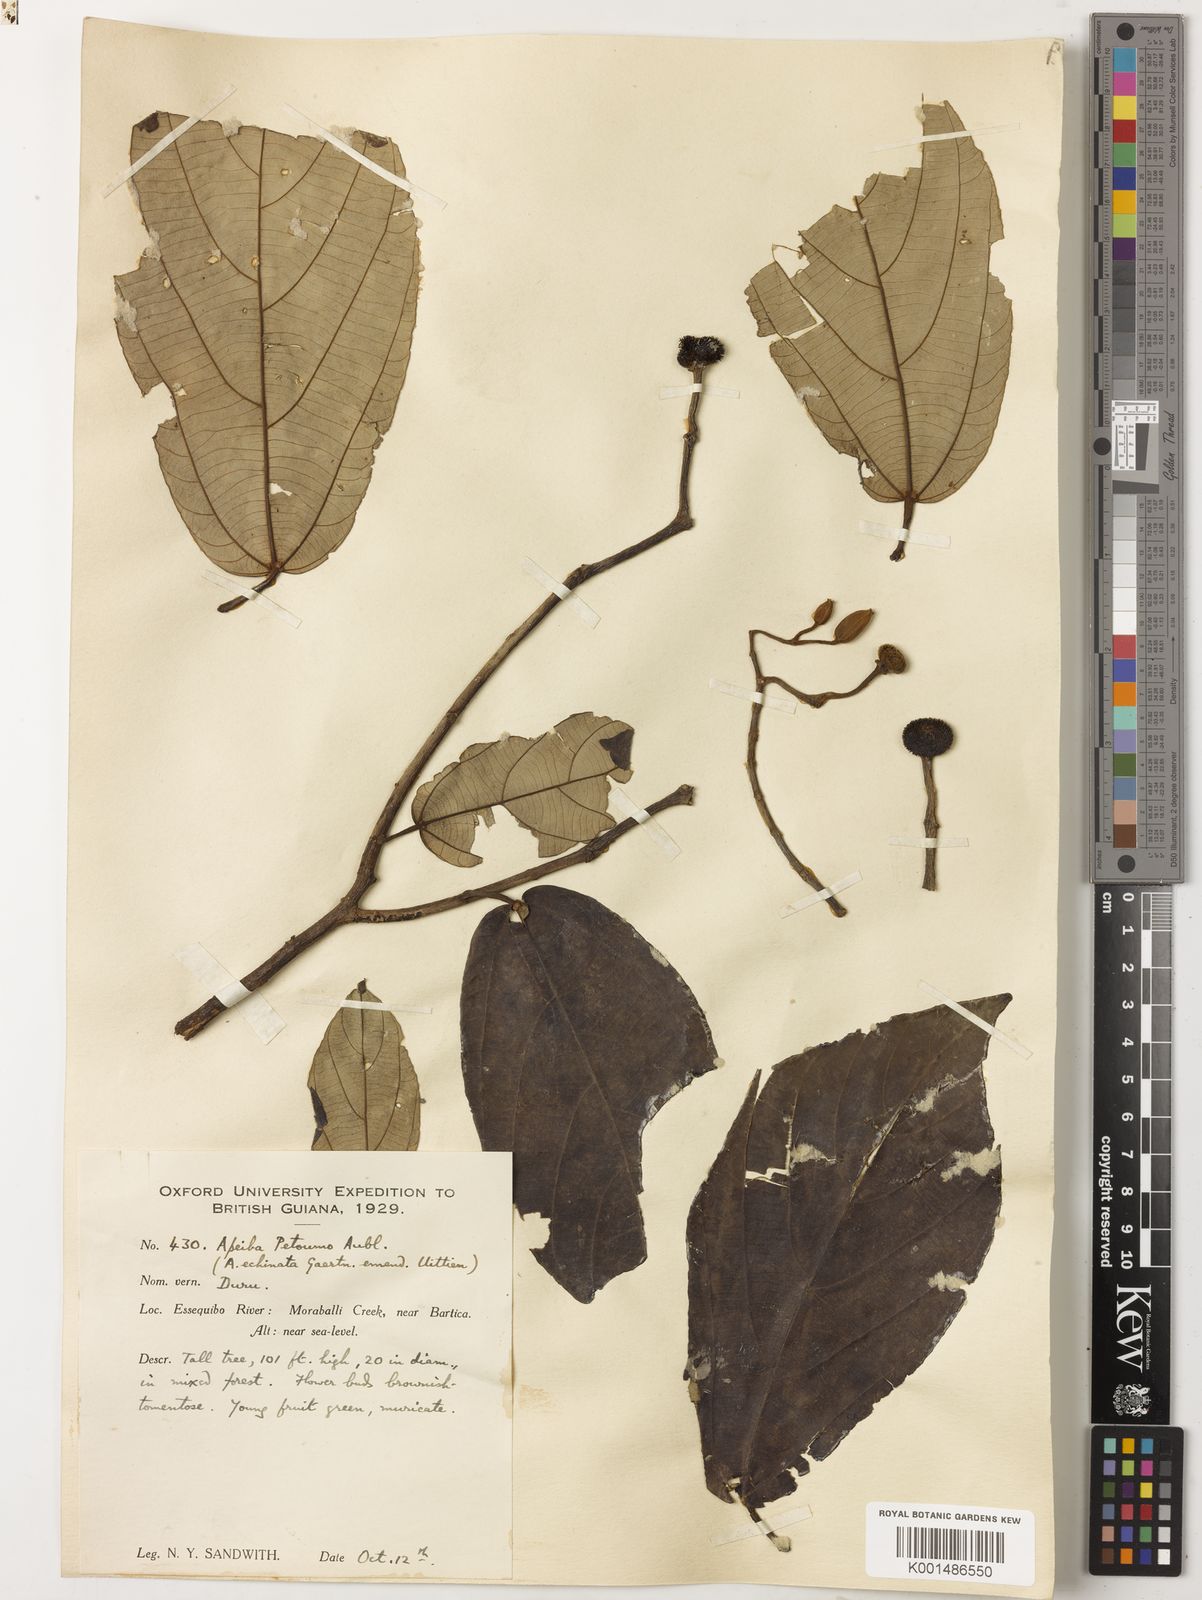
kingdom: Plantae
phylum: Tracheophyta
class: Magnoliopsida
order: Malvales
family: Malvaceae
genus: Apeiba
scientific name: Apeiba petoumo
